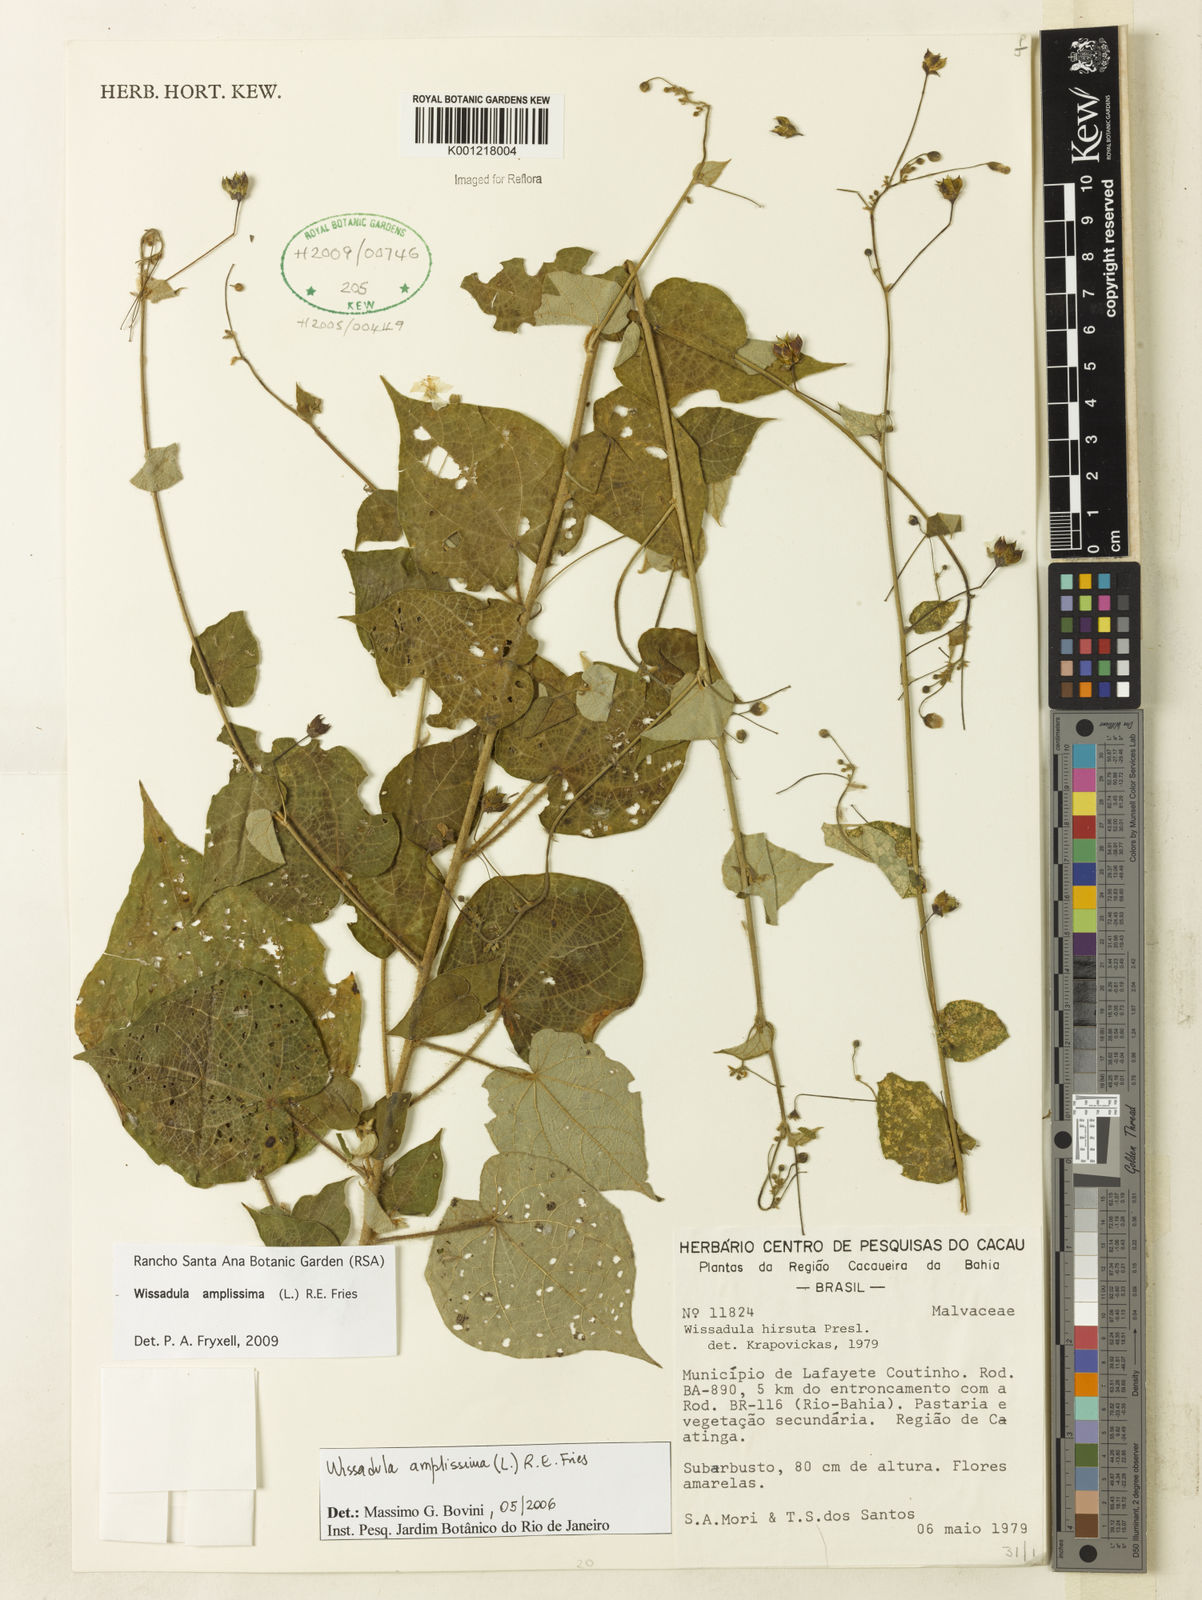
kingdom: Plantae
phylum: Tracheophyta
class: Magnoliopsida
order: Malvales
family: Malvaceae
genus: Wissadula
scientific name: Wissadula amplissima
